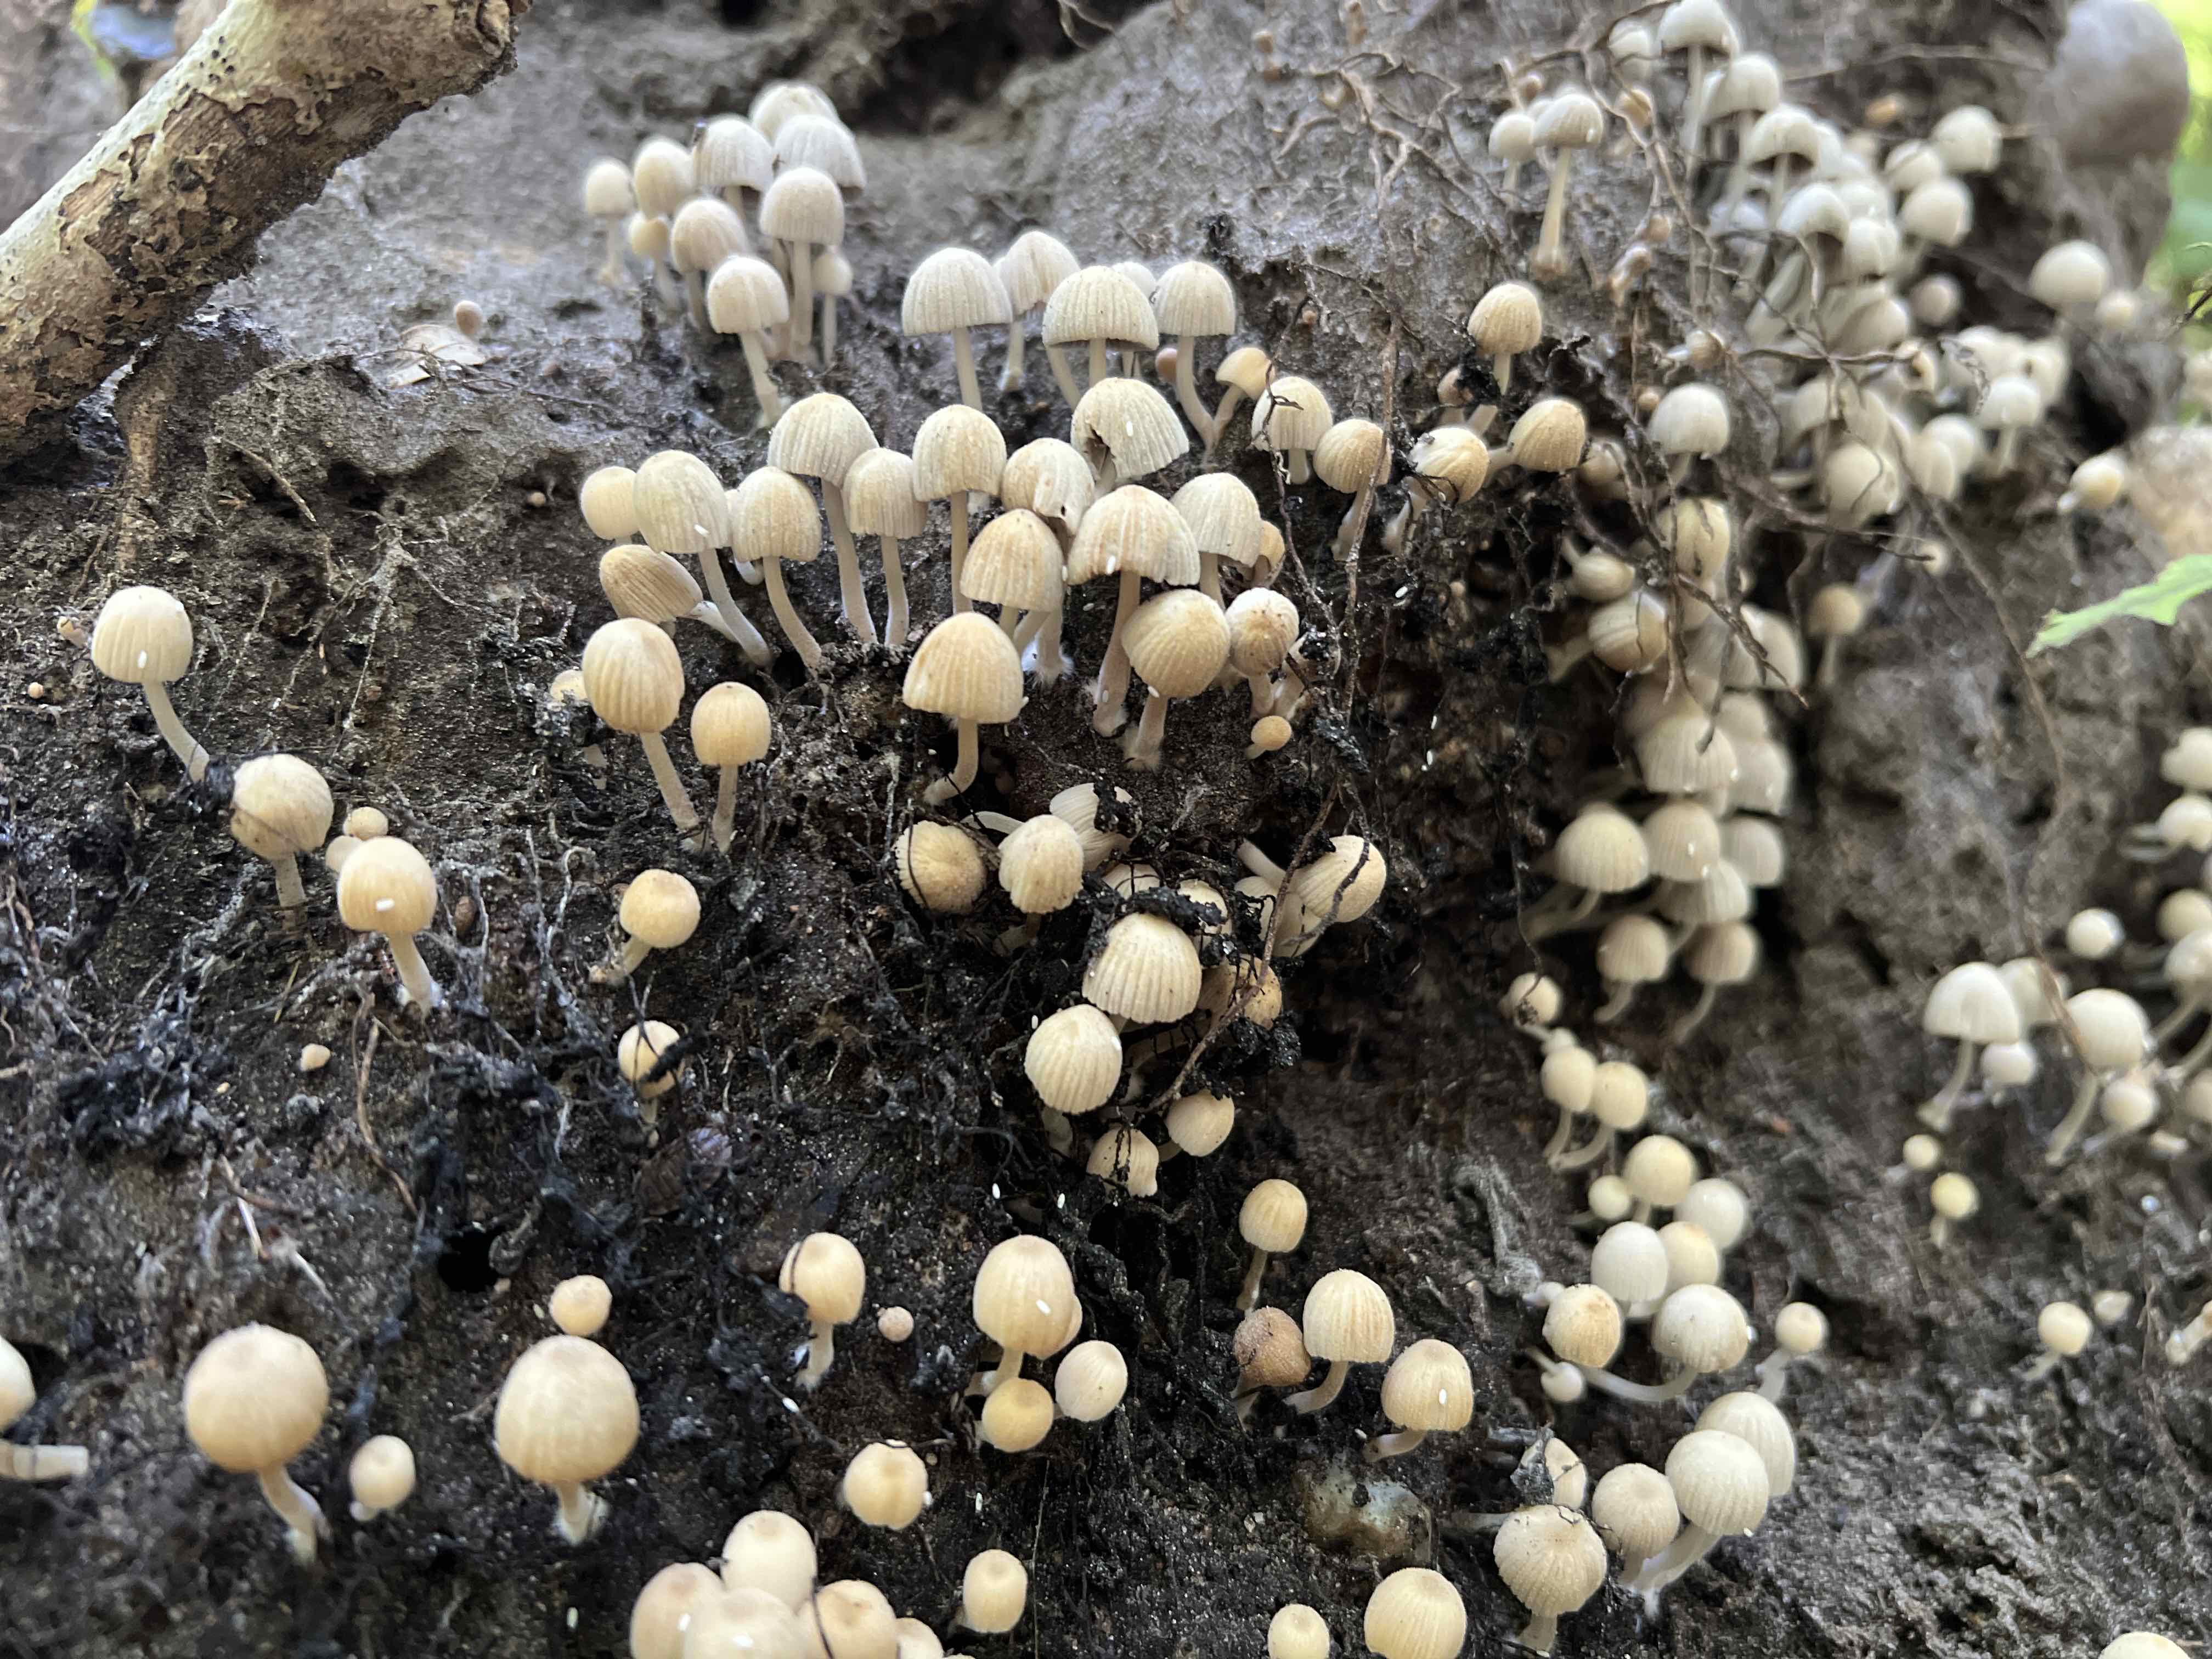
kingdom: Fungi
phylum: Basidiomycota
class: Agaricomycetes
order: Agaricales
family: Psathyrellaceae
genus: Coprinellus
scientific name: Coprinellus disseminatus
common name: bredsået blækhat
